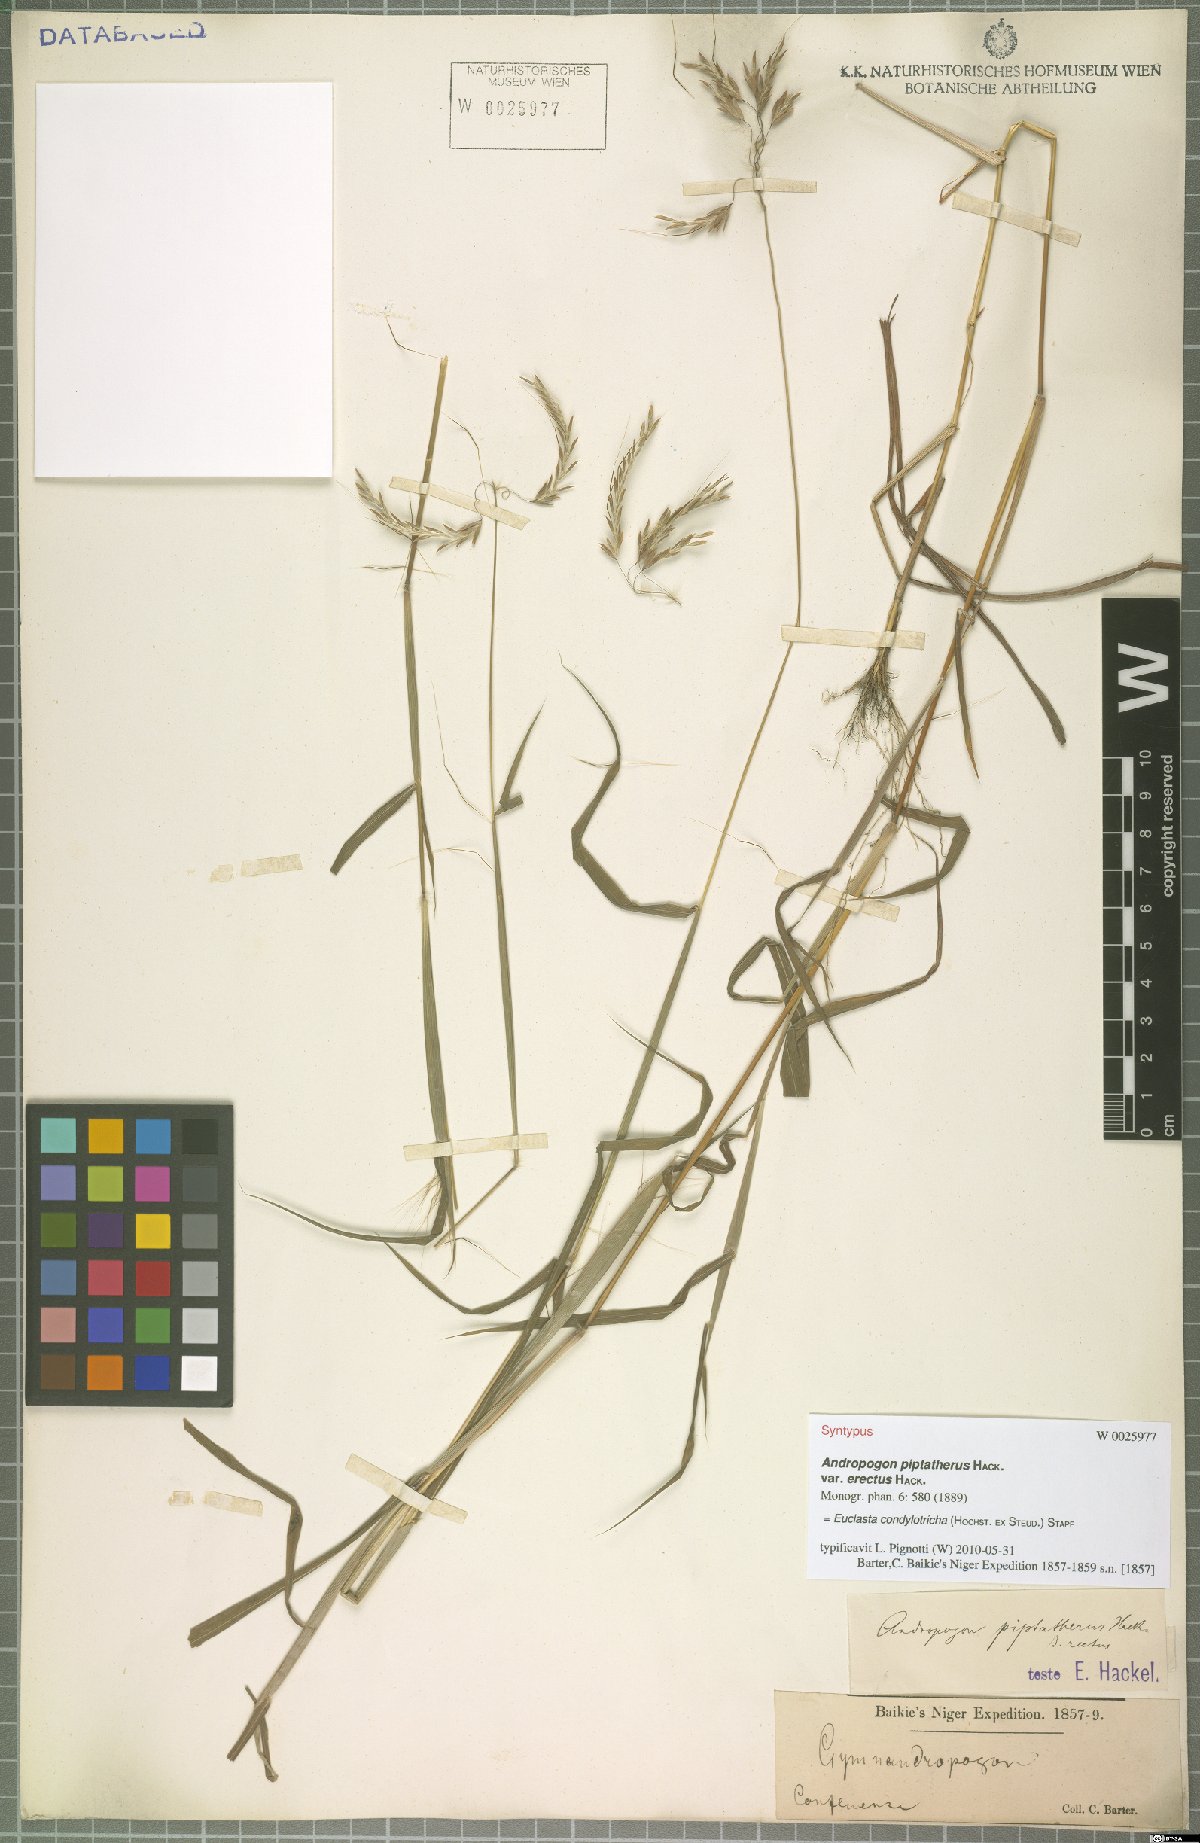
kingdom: Plantae
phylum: Tracheophyta
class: Liliopsida
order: Poales
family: Poaceae
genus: Euclasta
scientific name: Euclasta condylotricha
